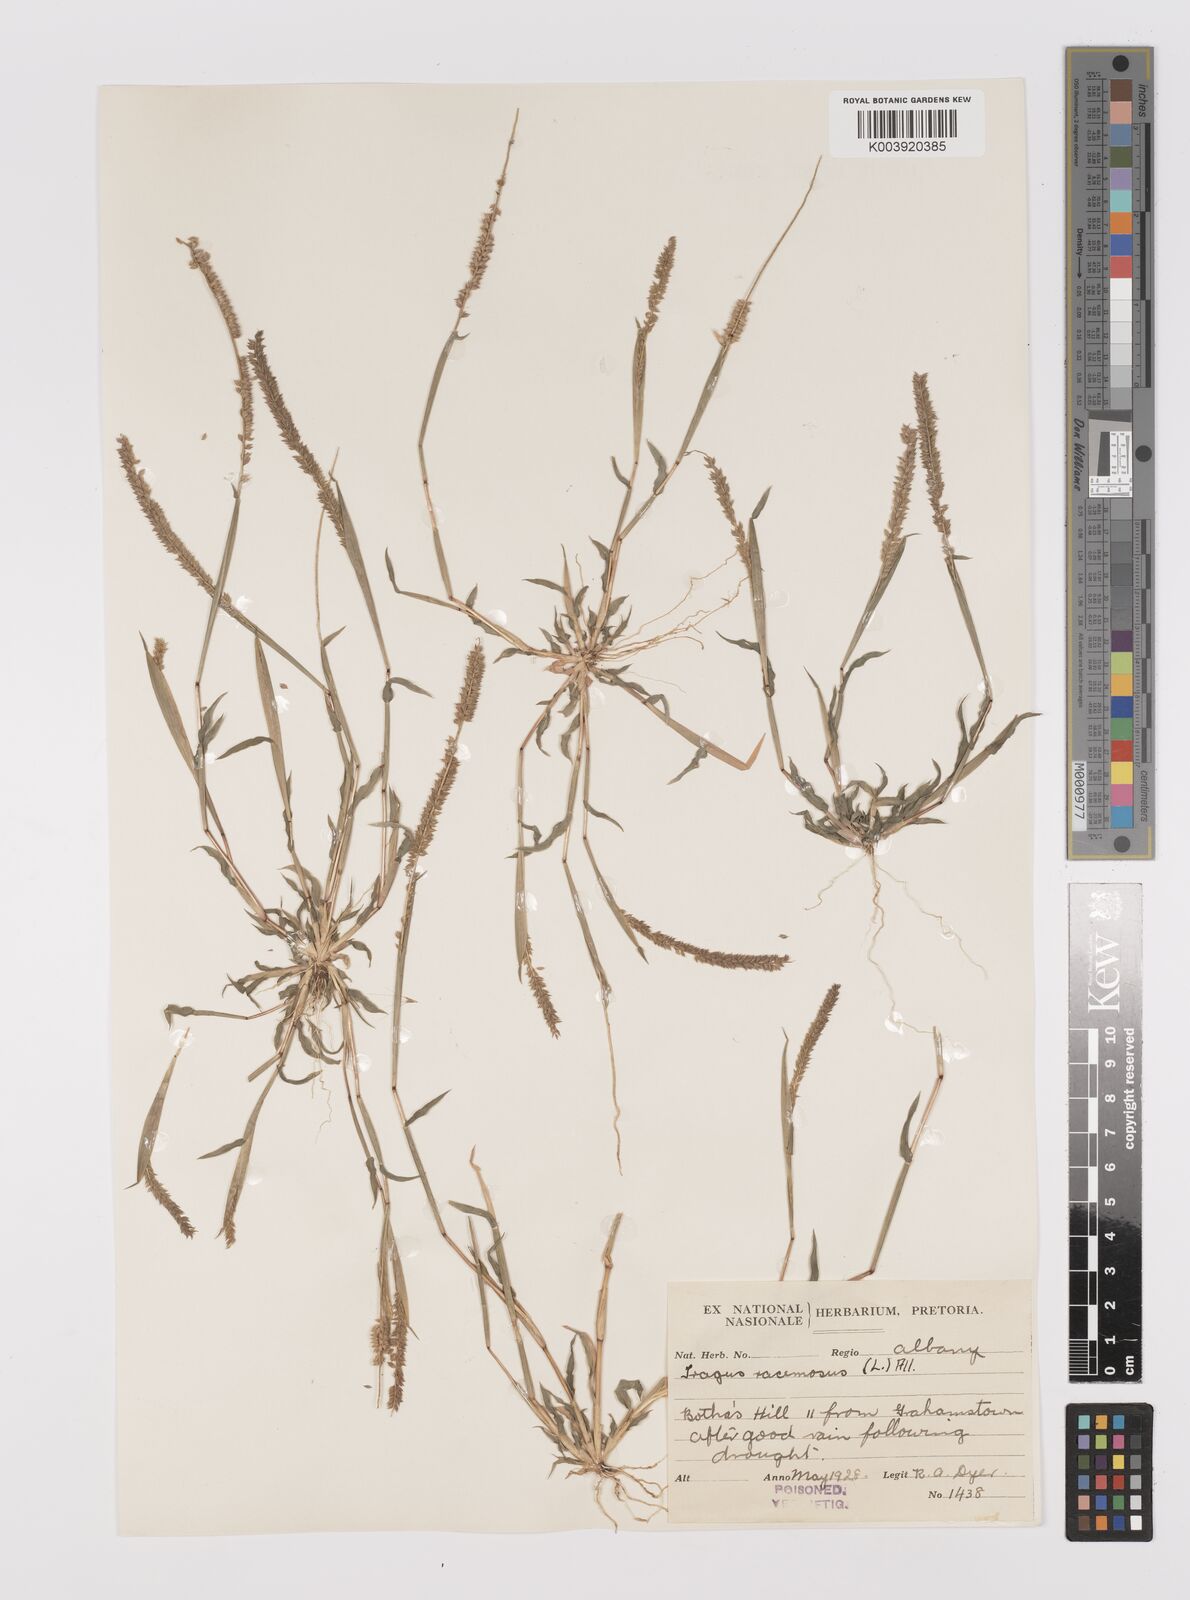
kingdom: Plantae
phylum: Tracheophyta
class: Liliopsida
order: Poales
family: Poaceae
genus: Tragus
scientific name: Tragus berteronianus
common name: African bur-grass
